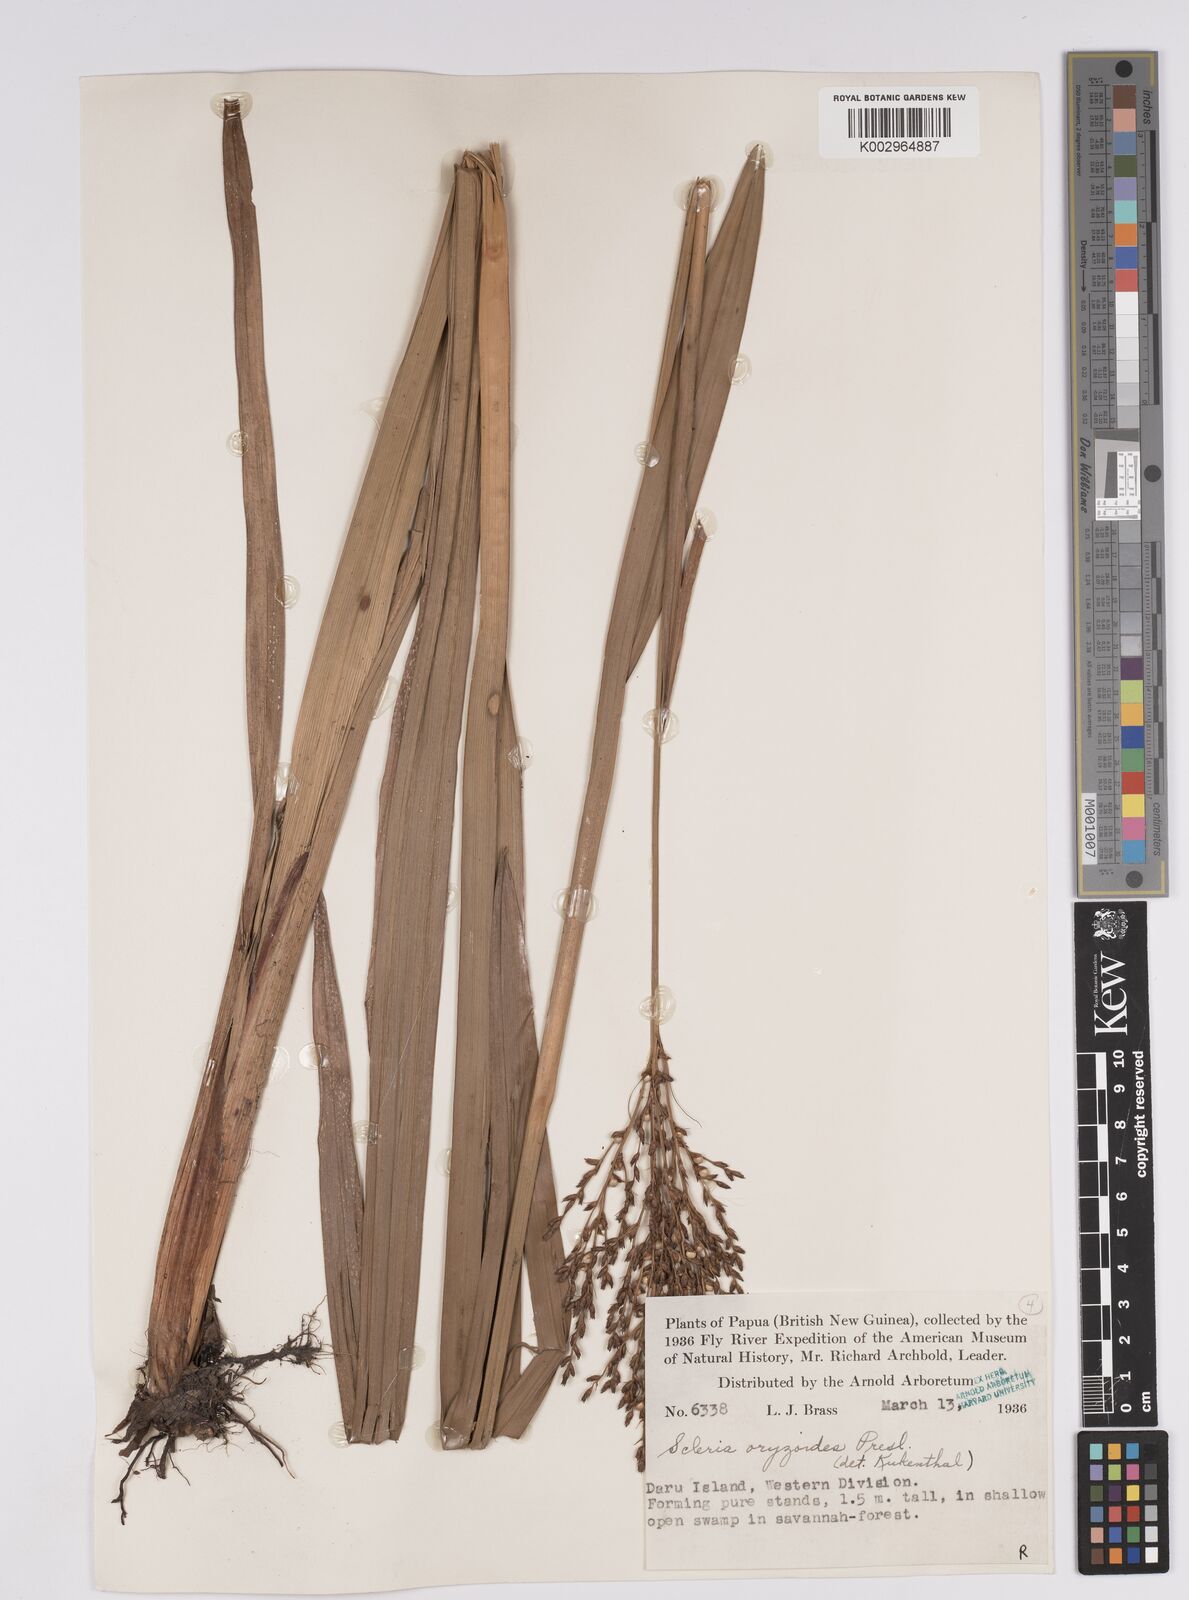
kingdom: Plantae
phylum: Tracheophyta
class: Liliopsida
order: Poales
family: Cyperaceae
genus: Scleria
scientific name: Scleria poiformis
